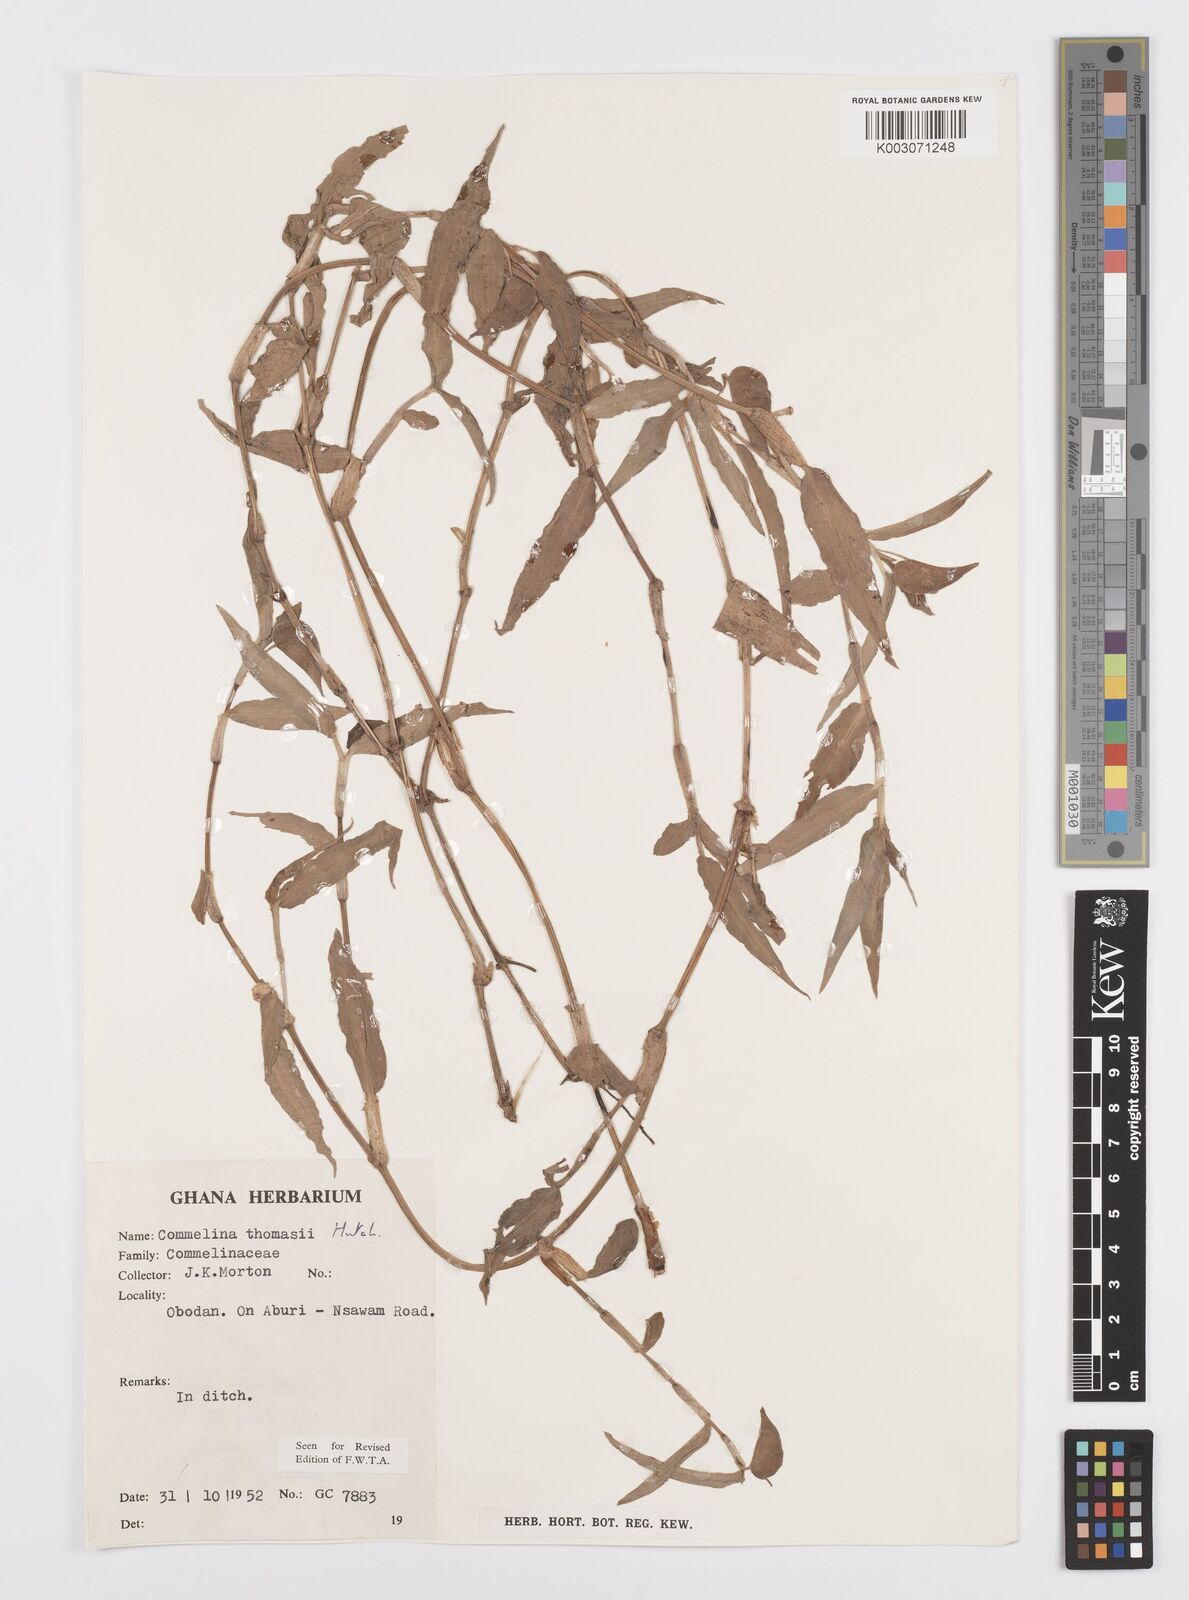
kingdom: Plantae
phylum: Tracheophyta
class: Liliopsida
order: Commelinales
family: Commelinaceae
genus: Commelina
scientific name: Commelina acutispatha
